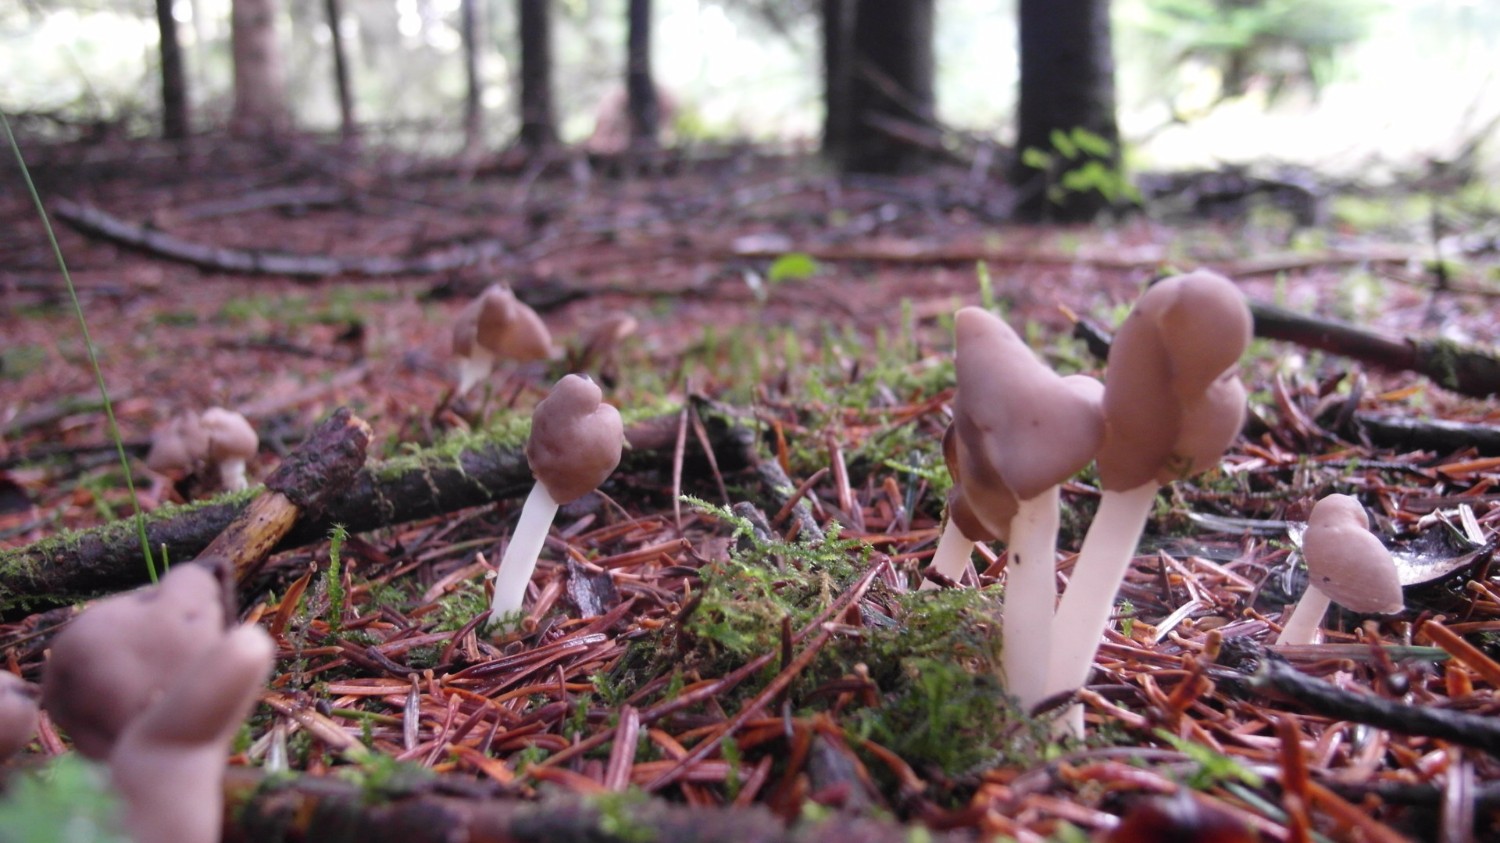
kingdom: Fungi
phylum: Ascomycota
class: Pezizomycetes
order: Pezizales
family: Helvellaceae
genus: Helvella
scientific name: Helvella elastica
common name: elastik-foldhat
